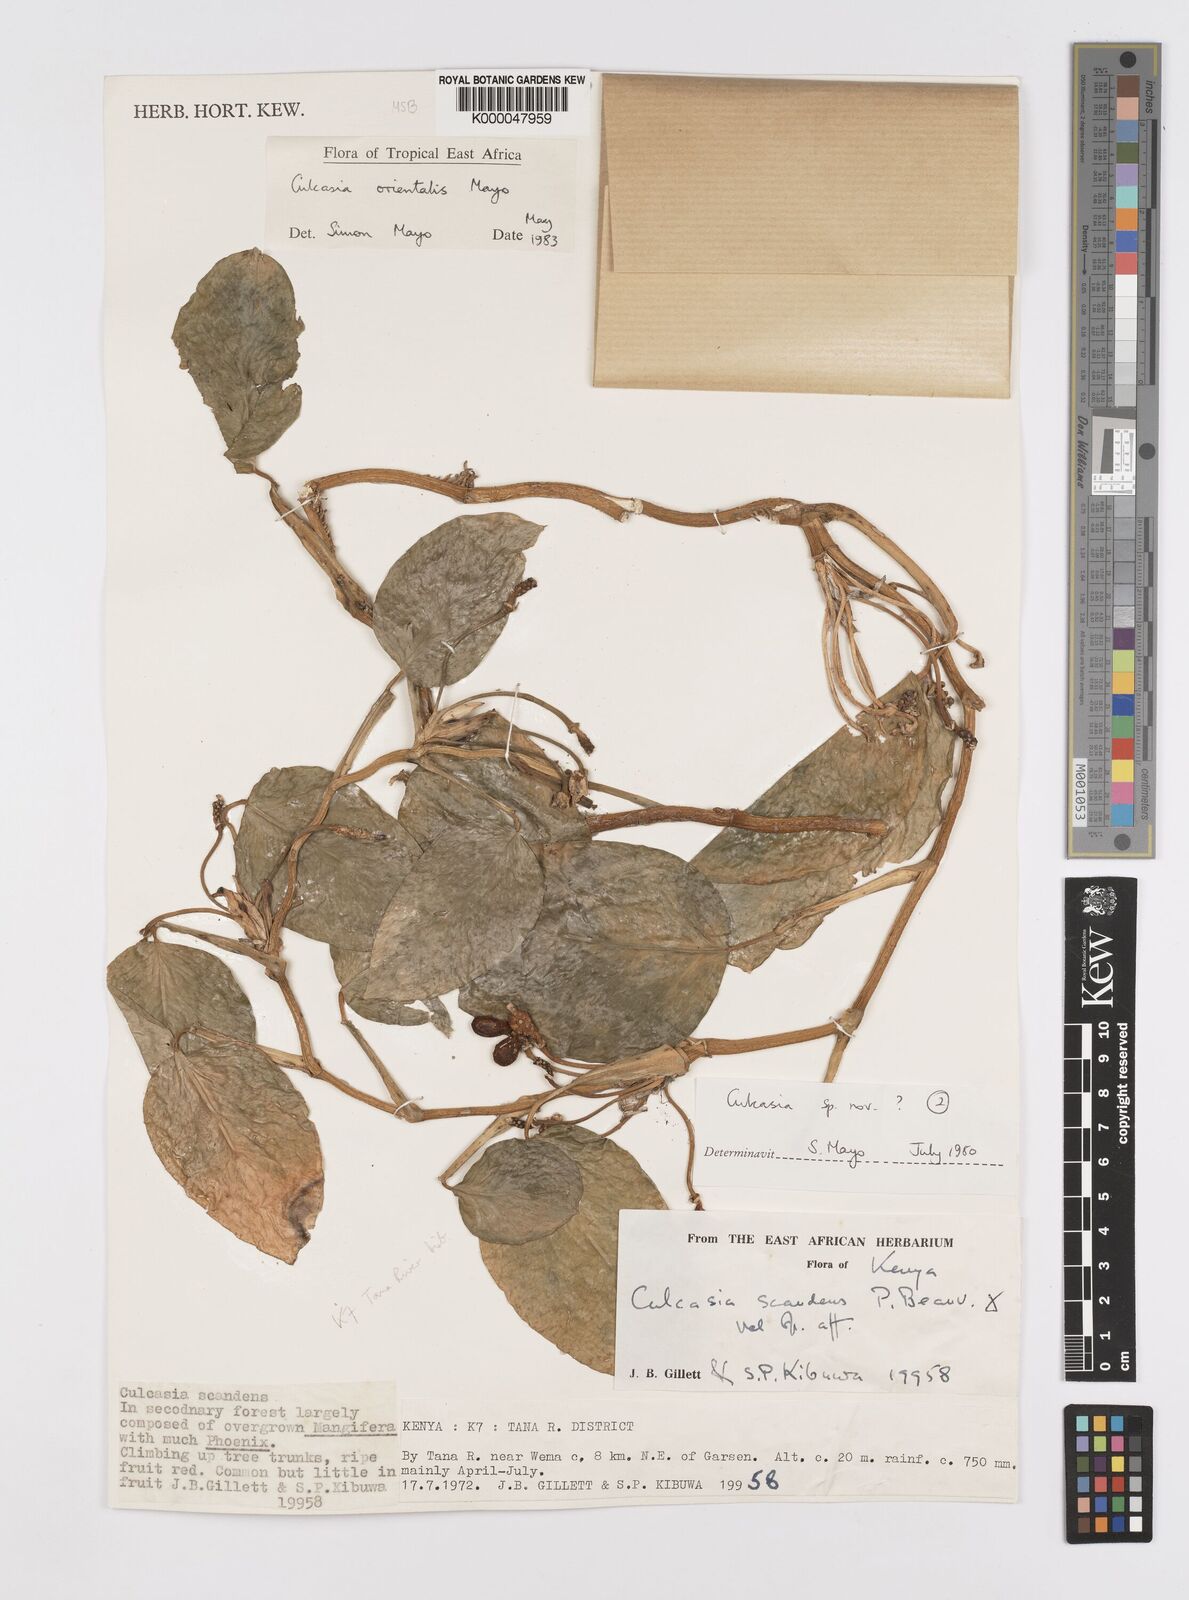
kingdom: Plantae
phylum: Tracheophyta
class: Liliopsida
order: Alismatales
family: Araceae
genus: Culcasia
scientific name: Culcasia orientalis
